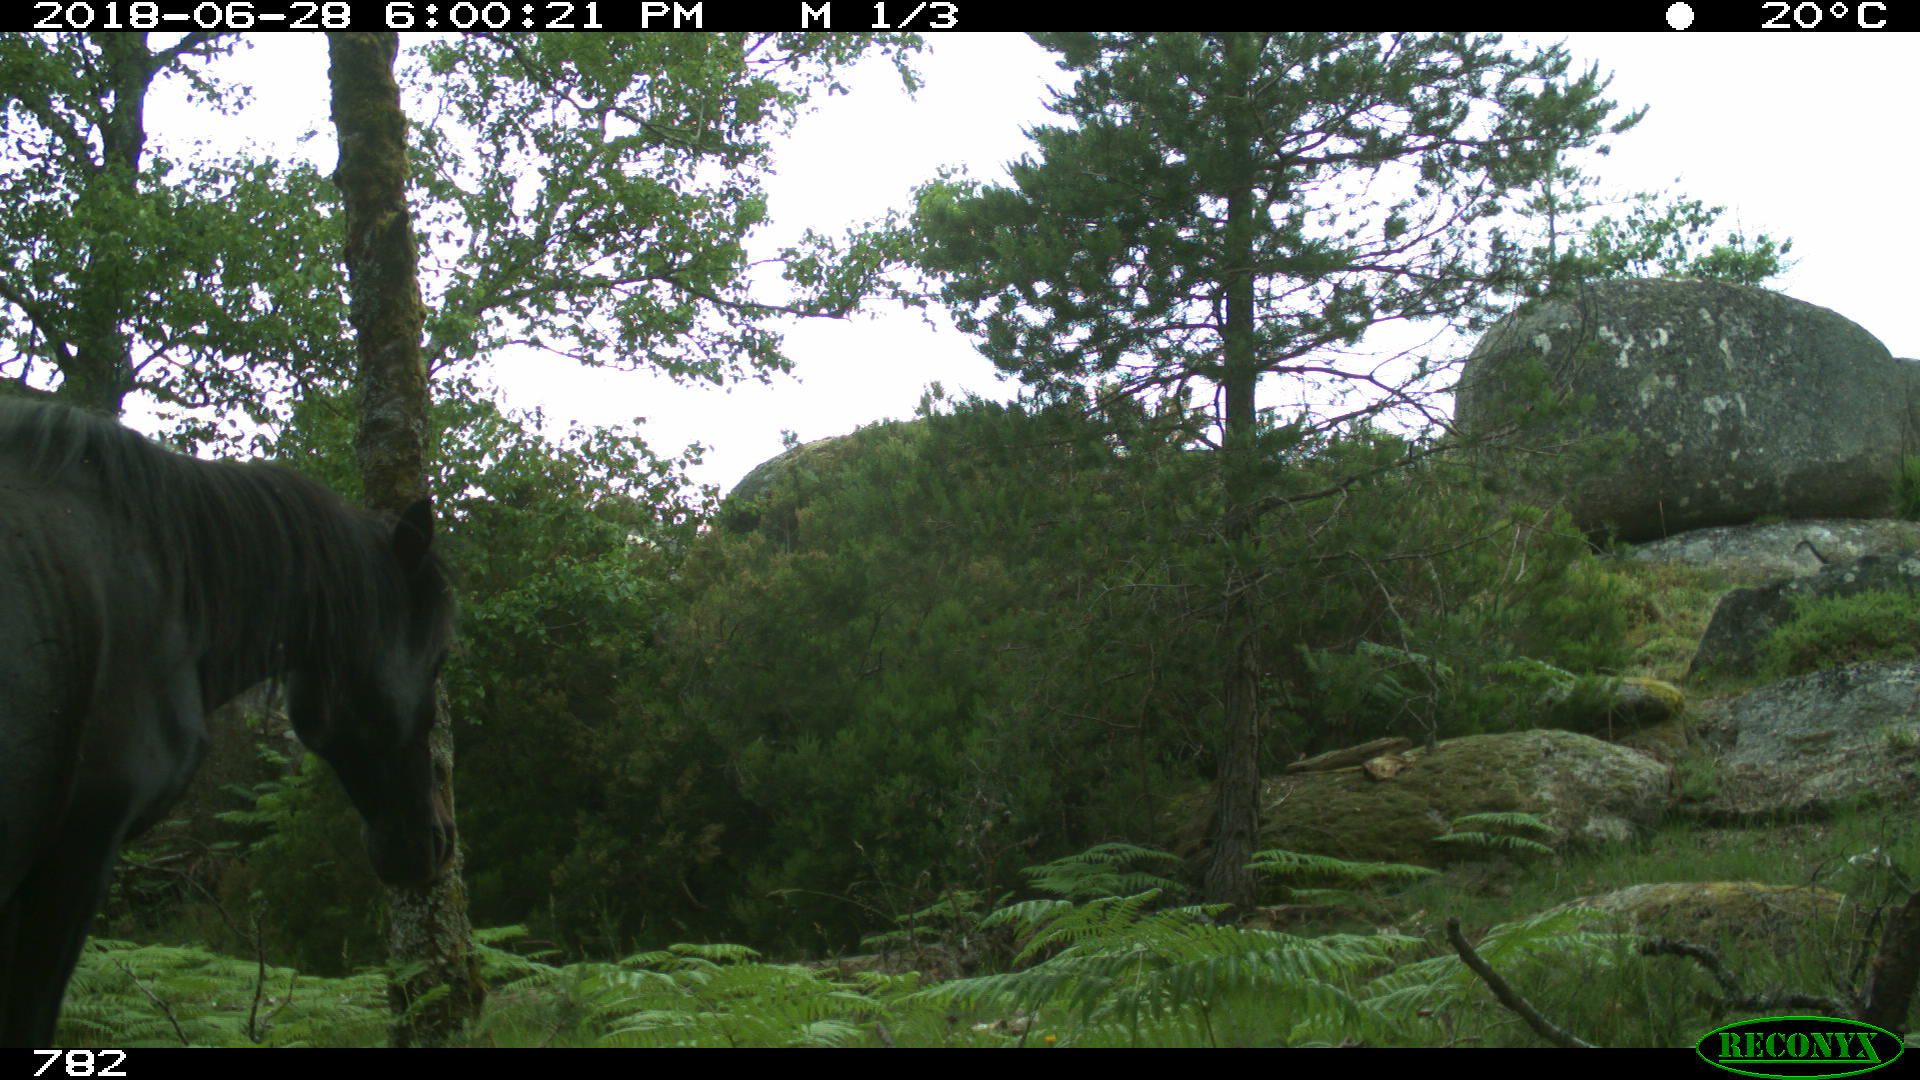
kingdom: Animalia
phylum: Chordata
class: Mammalia
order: Perissodactyla
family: Equidae
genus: Equus
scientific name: Equus caballus
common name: Horse
